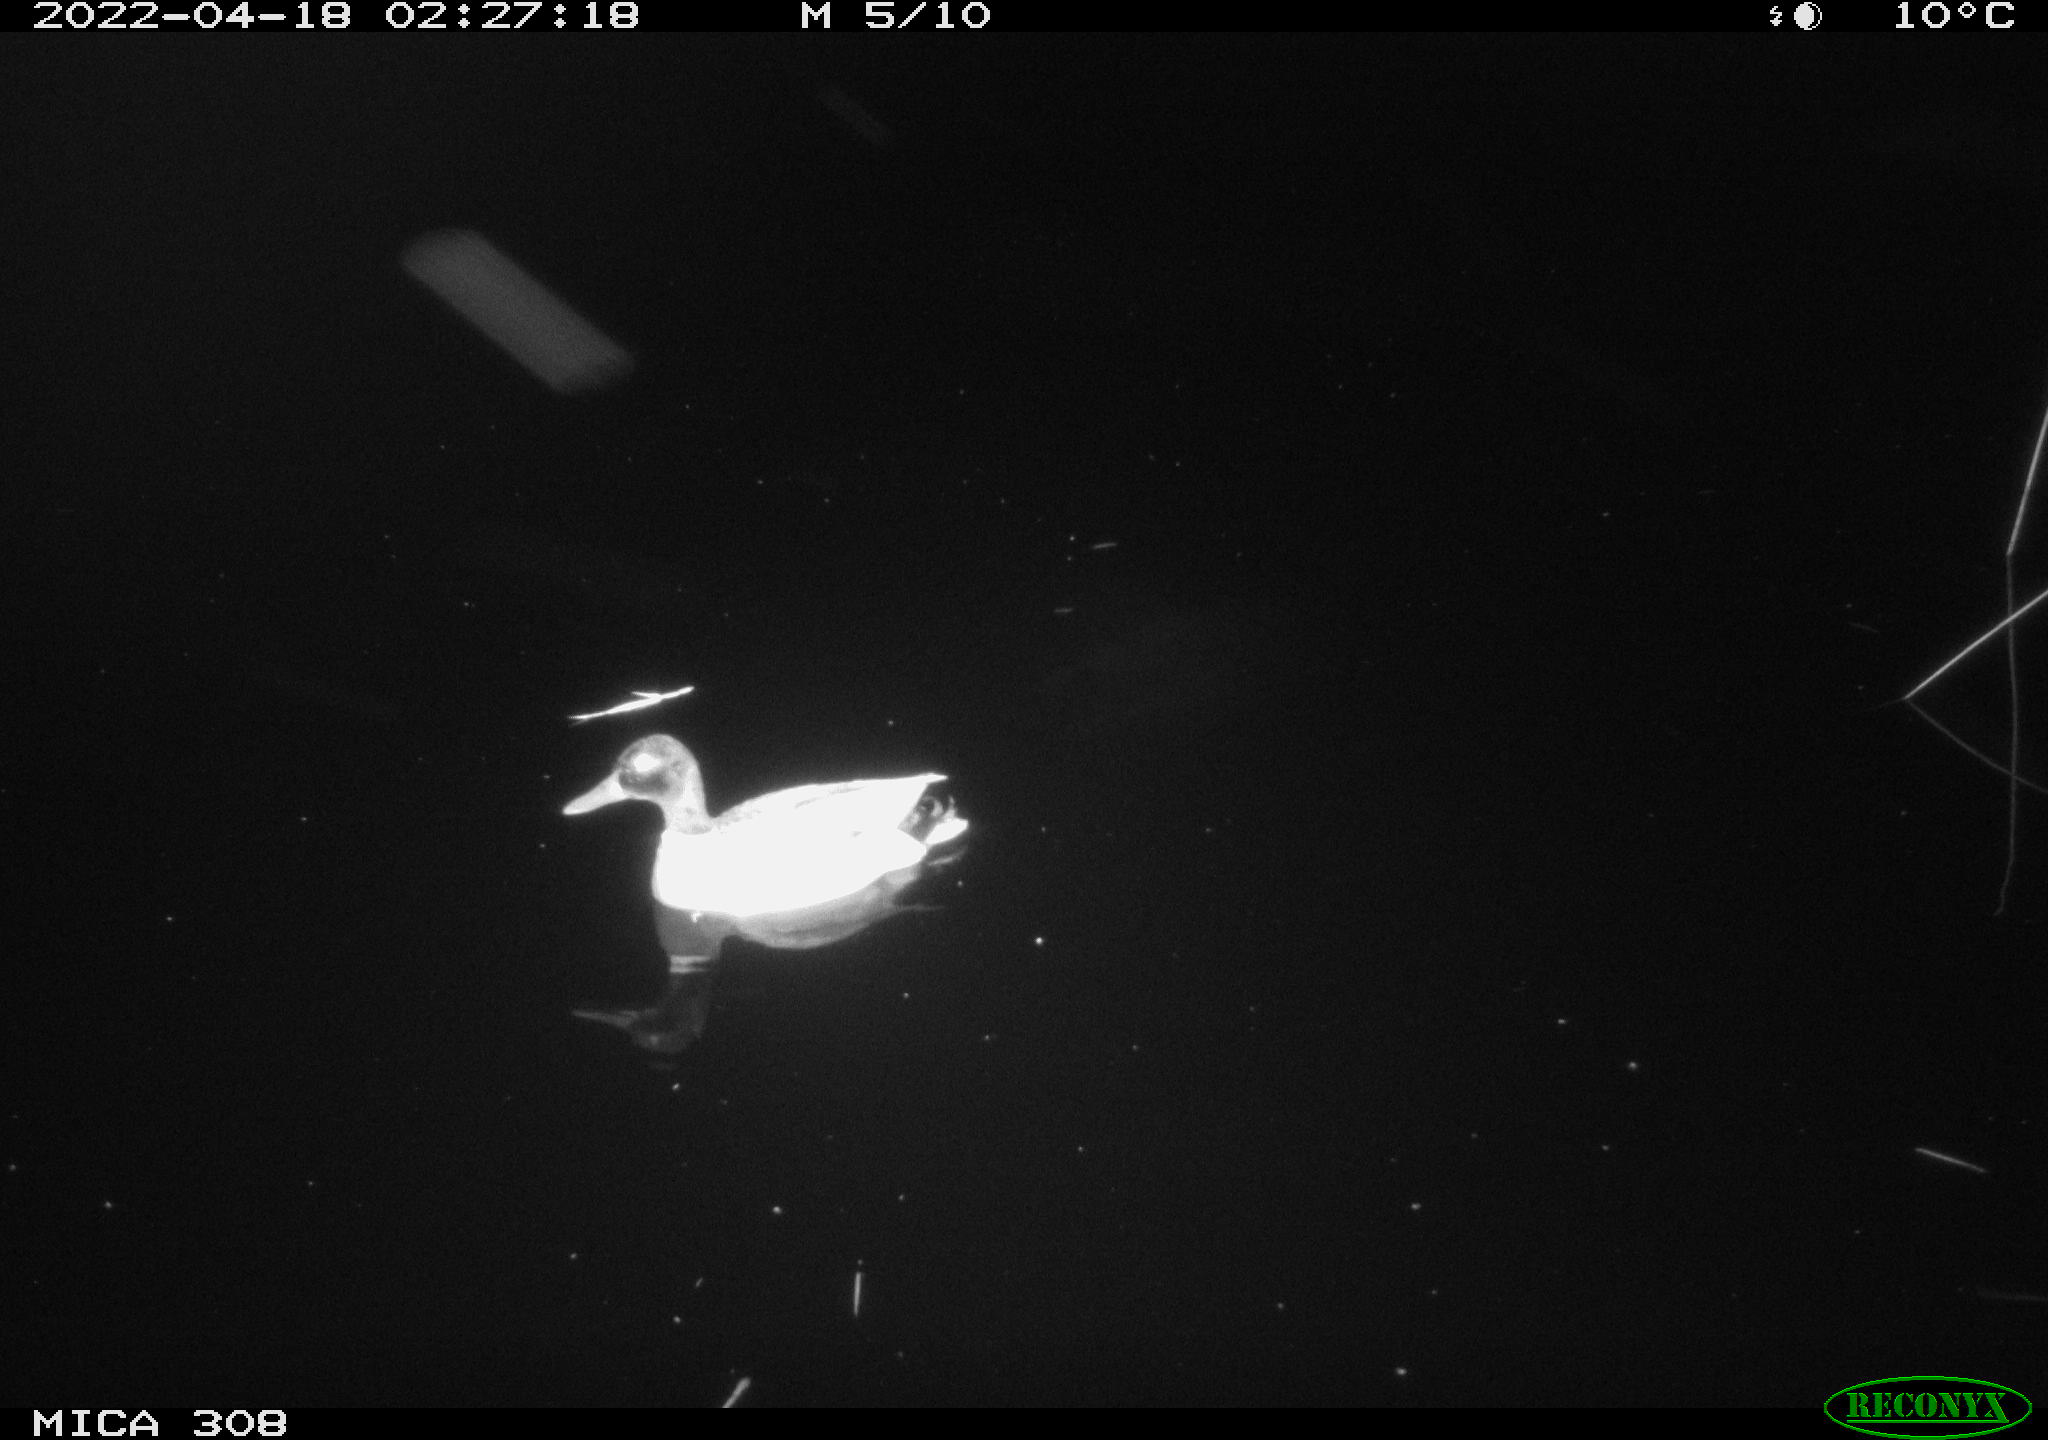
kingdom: Animalia
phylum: Chordata
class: Aves
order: Anseriformes
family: Anatidae
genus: Anas
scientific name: Anas platyrhynchos
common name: Mallard
